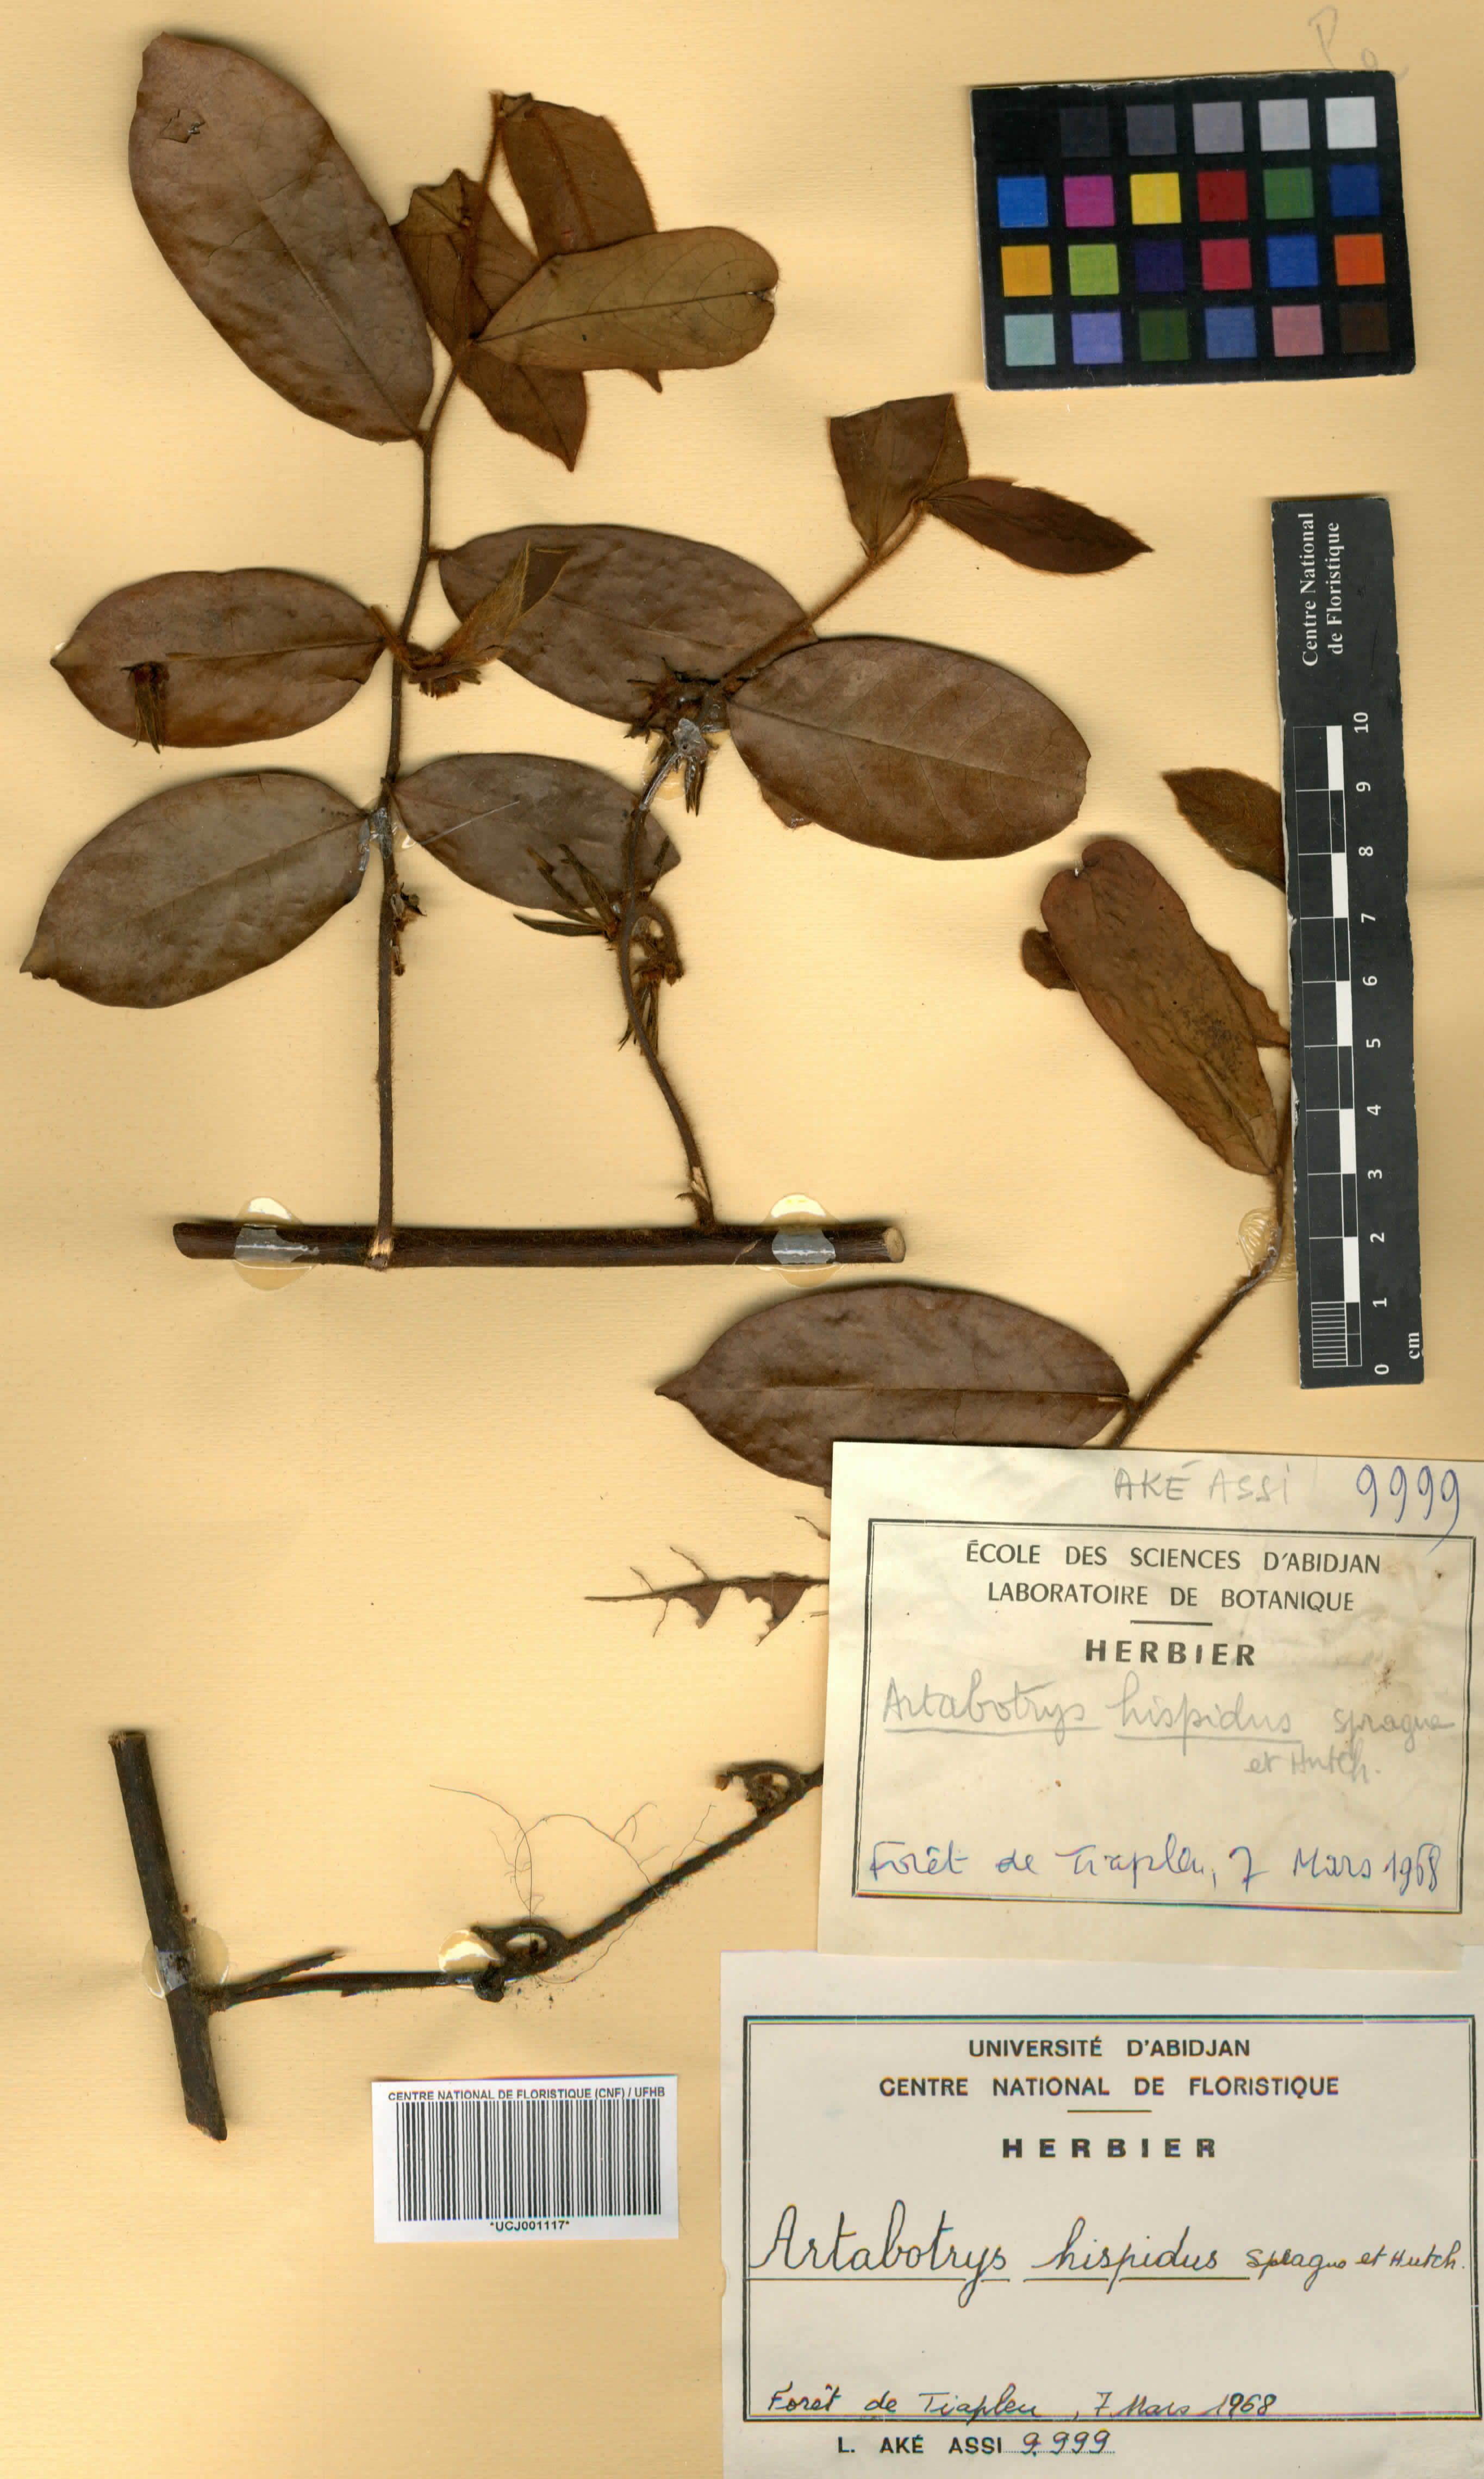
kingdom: Plantae
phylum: Tracheophyta
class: Magnoliopsida
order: Magnoliales
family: Annonaceae
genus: Artabotrys
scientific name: Artabotrys hispidus
